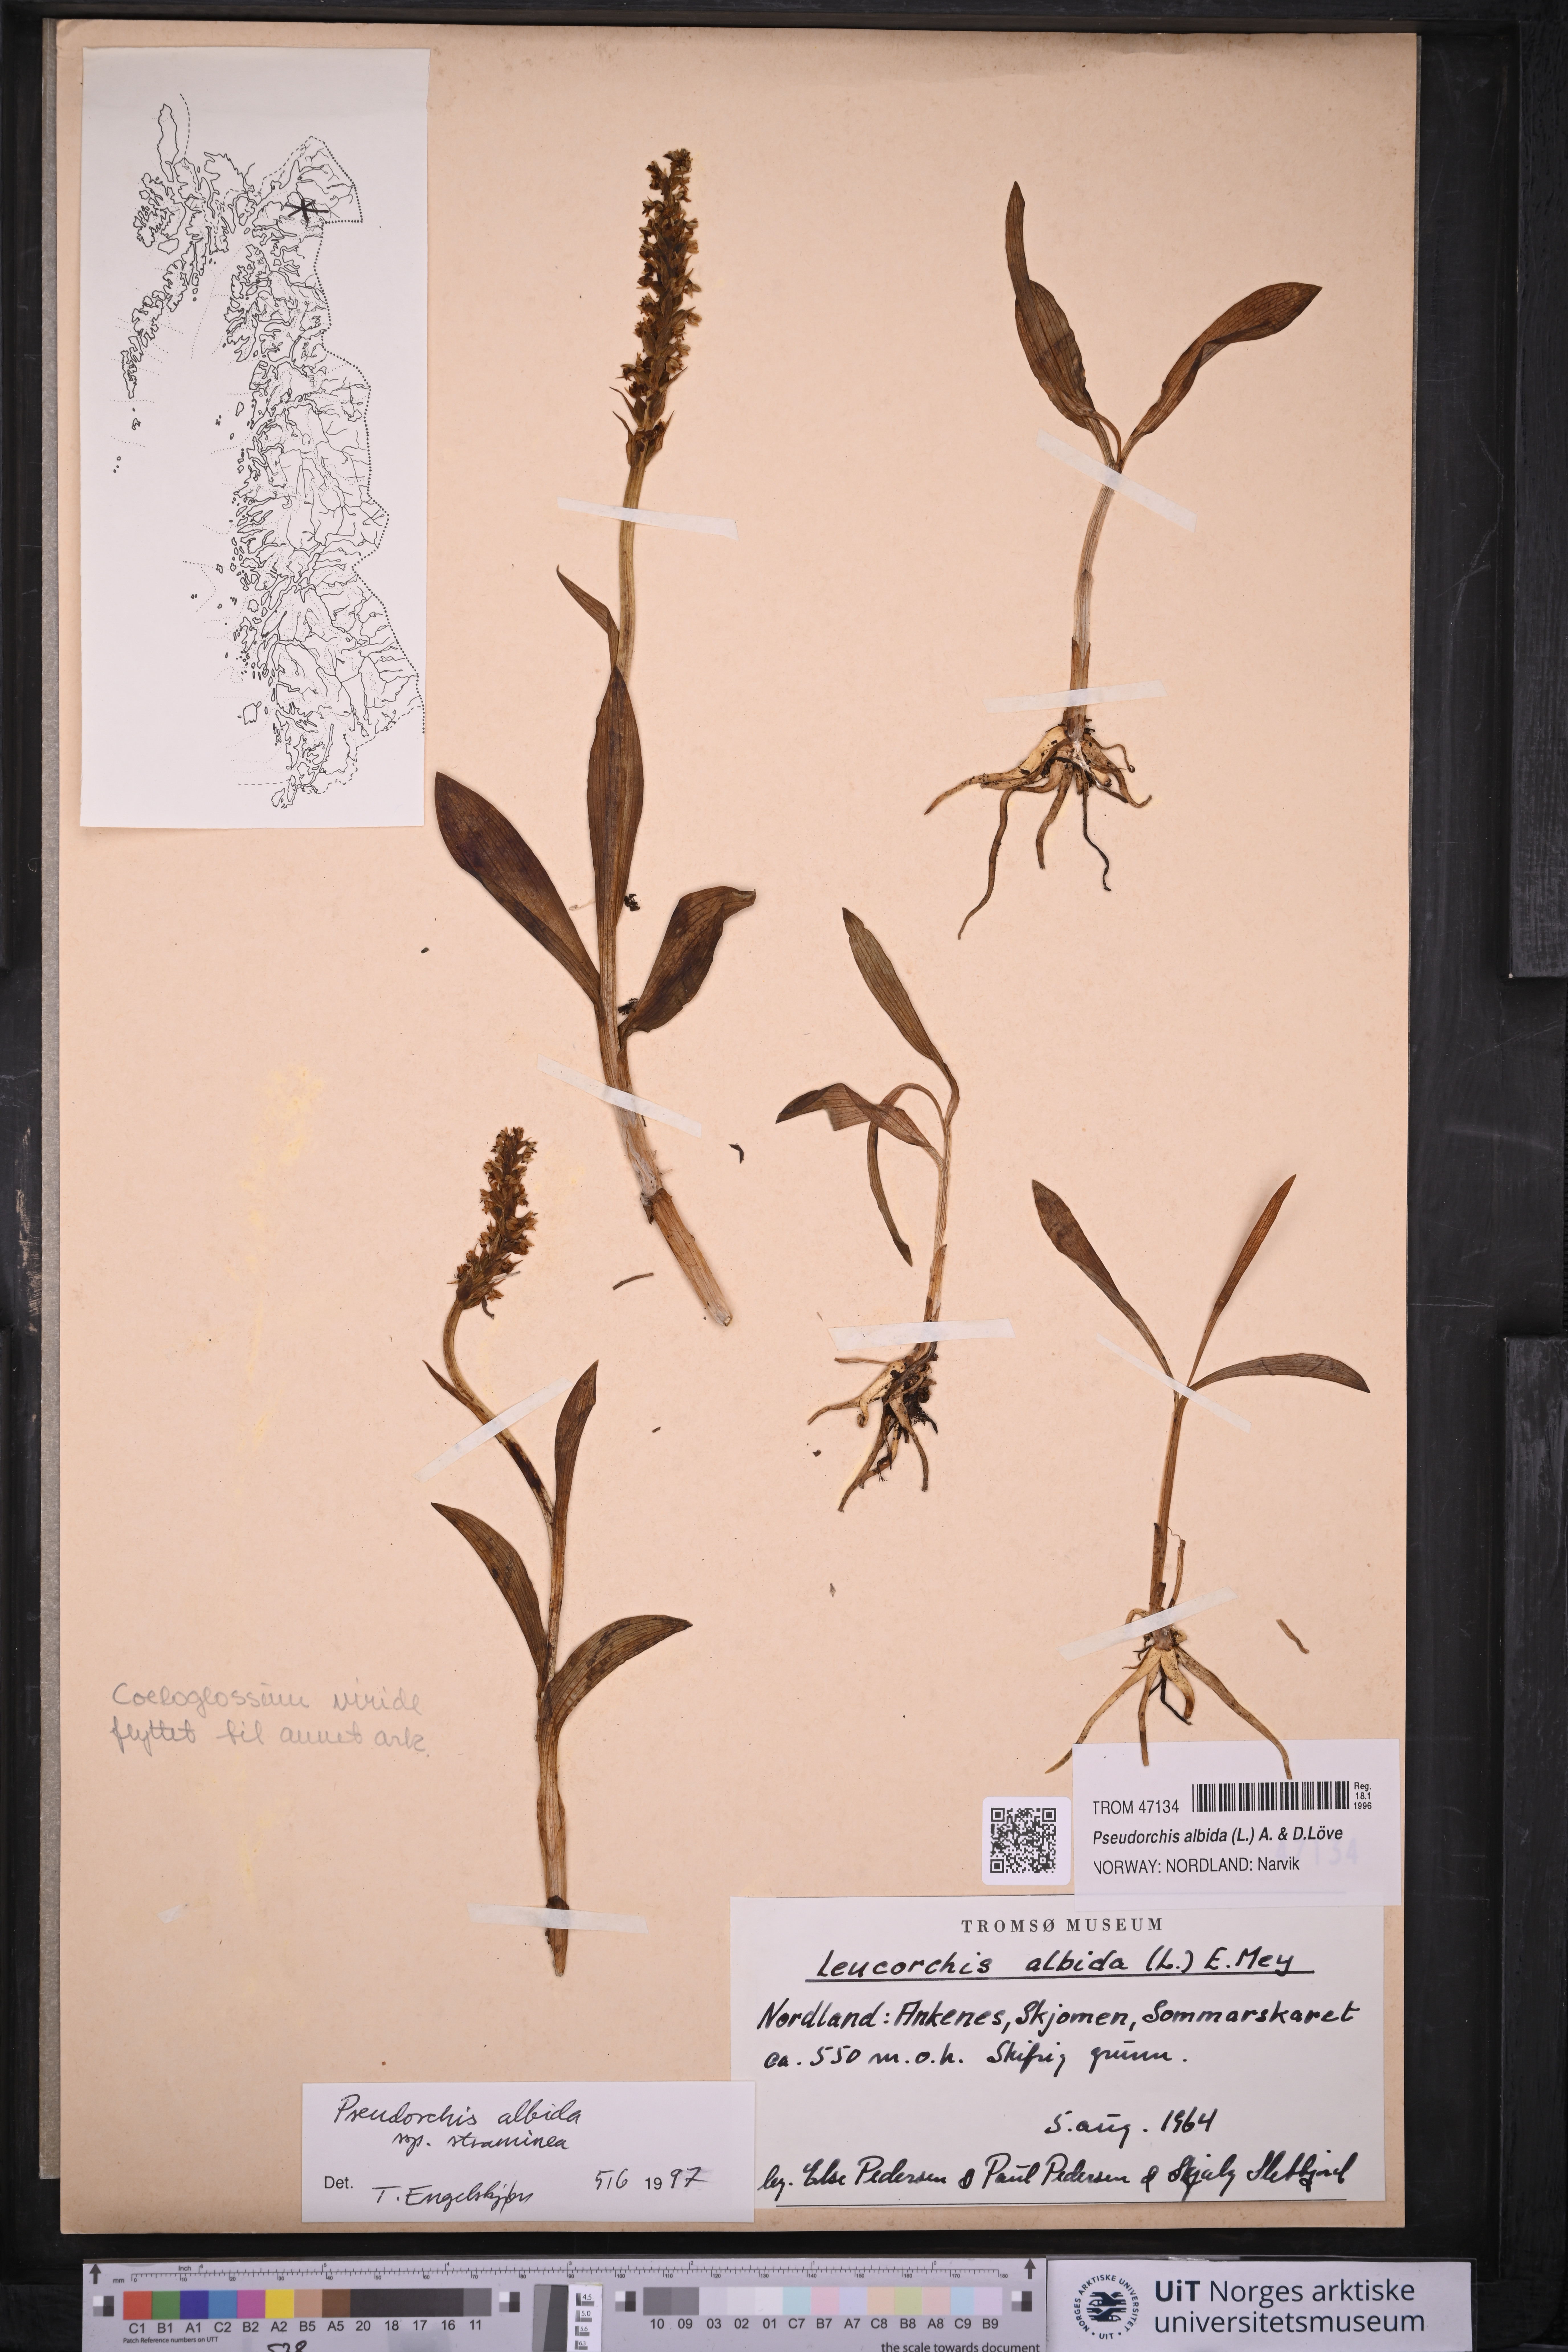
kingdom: Plantae
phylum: Tracheophyta
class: Liliopsida
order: Asparagales
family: Orchidaceae
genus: Pseudorchis
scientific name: Pseudorchis straminea
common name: Vanilla-scented bog orchid
